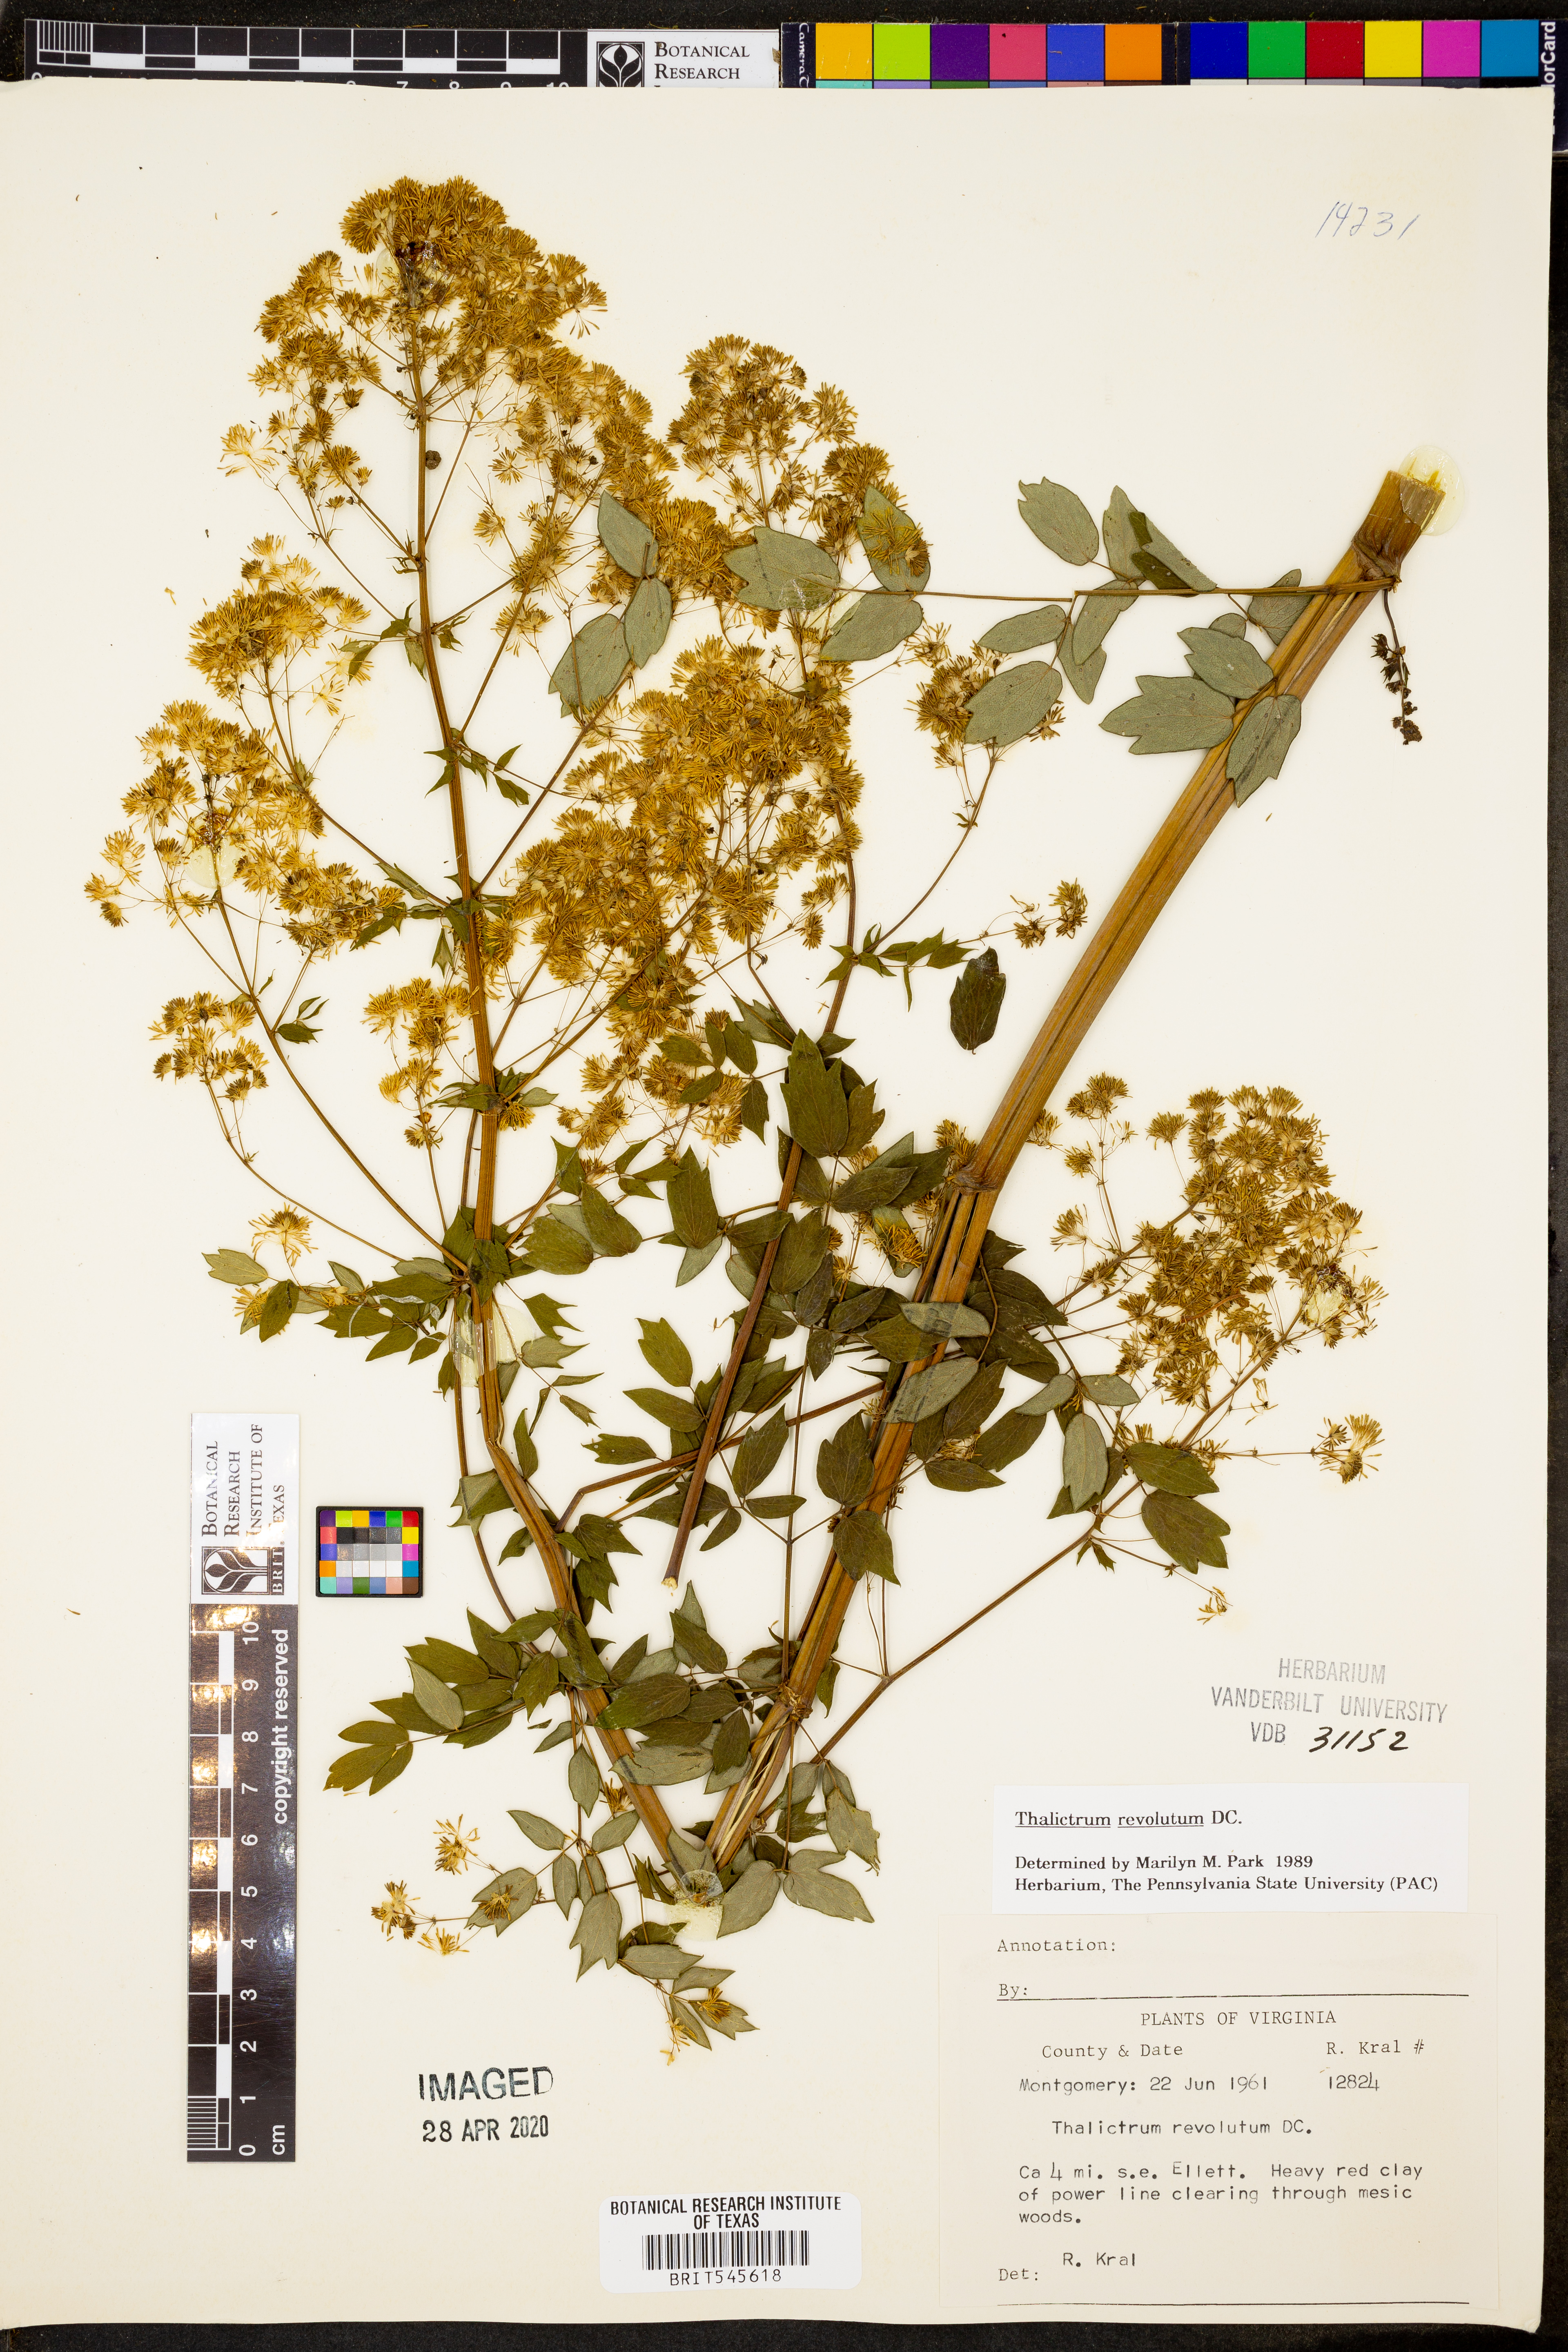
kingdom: Plantae
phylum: Tracheophyta
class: Magnoliopsida
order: Ranunculales
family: Ranunculaceae
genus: Thalictrum
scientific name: Thalictrum revolutum
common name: Waxy meadow-rue
